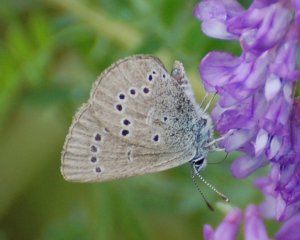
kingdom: Animalia
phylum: Arthropoda
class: Insecta
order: Lepidoptera
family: Lycaenidae
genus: Glaucopsyche
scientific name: Glaucopsyche lygdamus
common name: Silvery Blue
